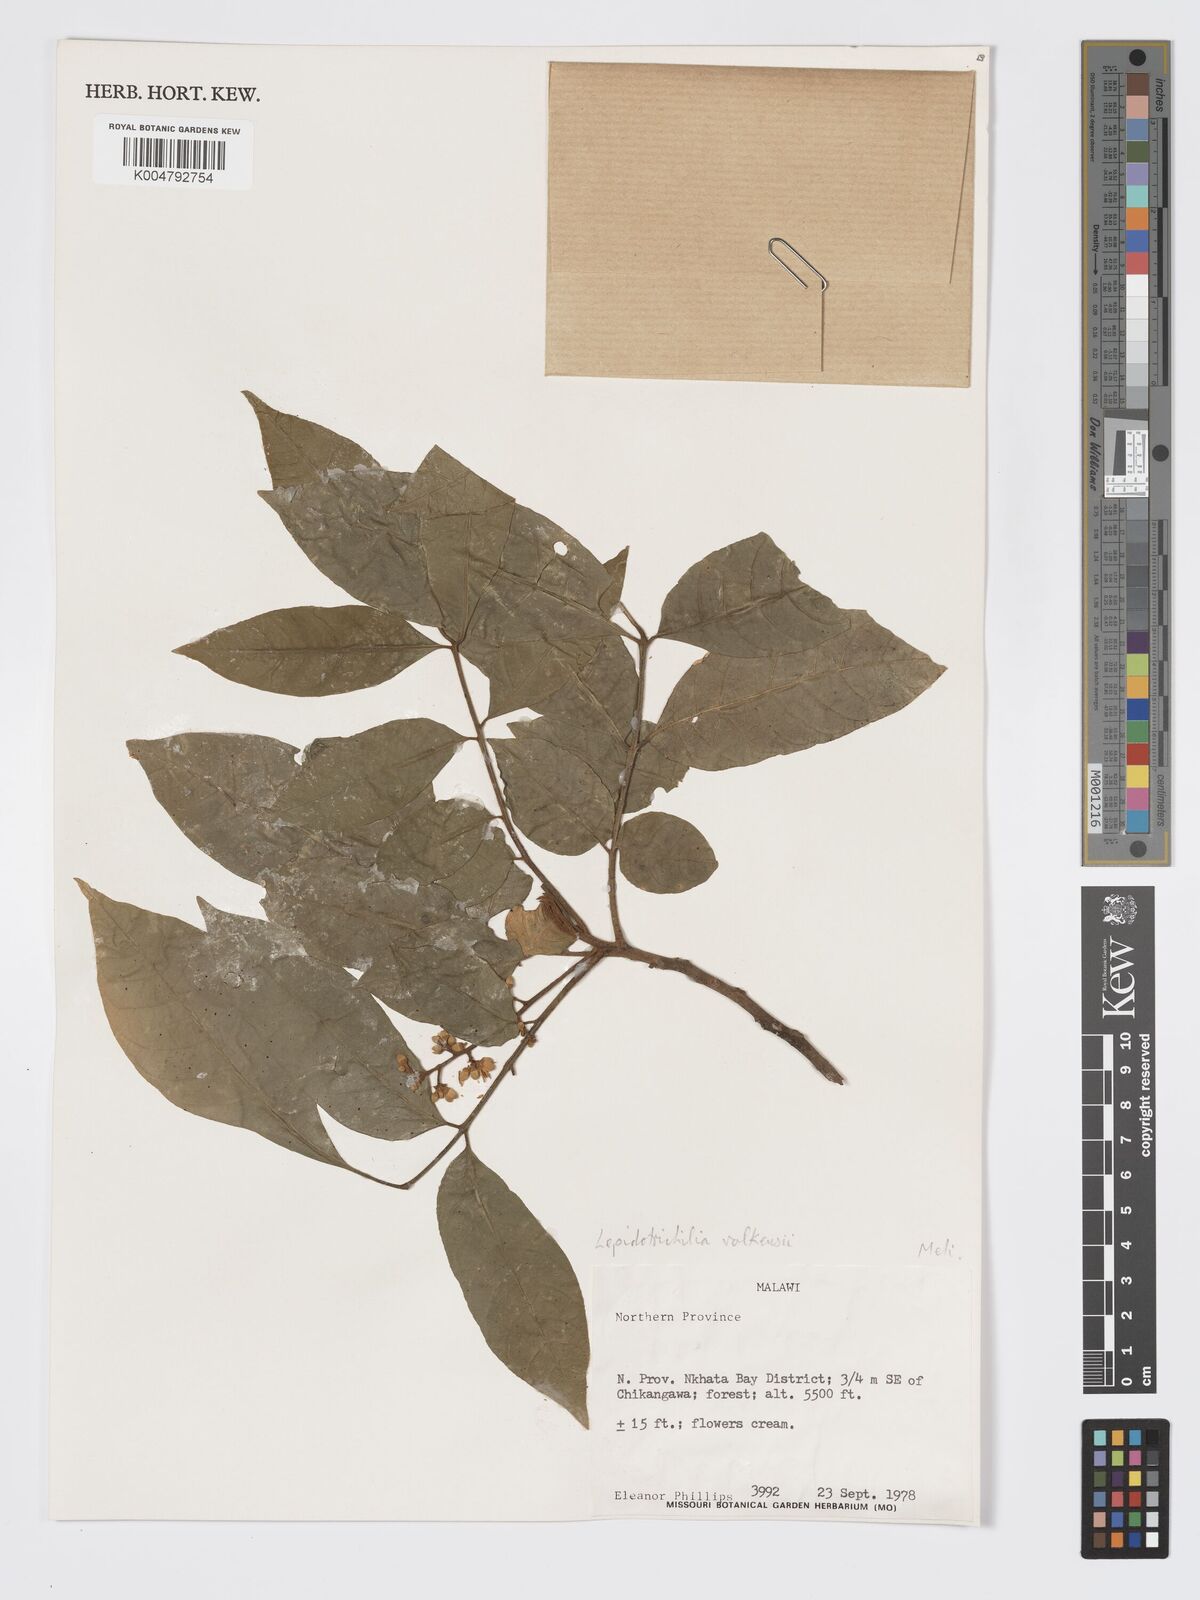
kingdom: Plantae
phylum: Tracheophyta
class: Magnoliopsida
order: Sapindales
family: Meliaceae
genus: Lepidotrichilia
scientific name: Lepidotrichilia volkensii
